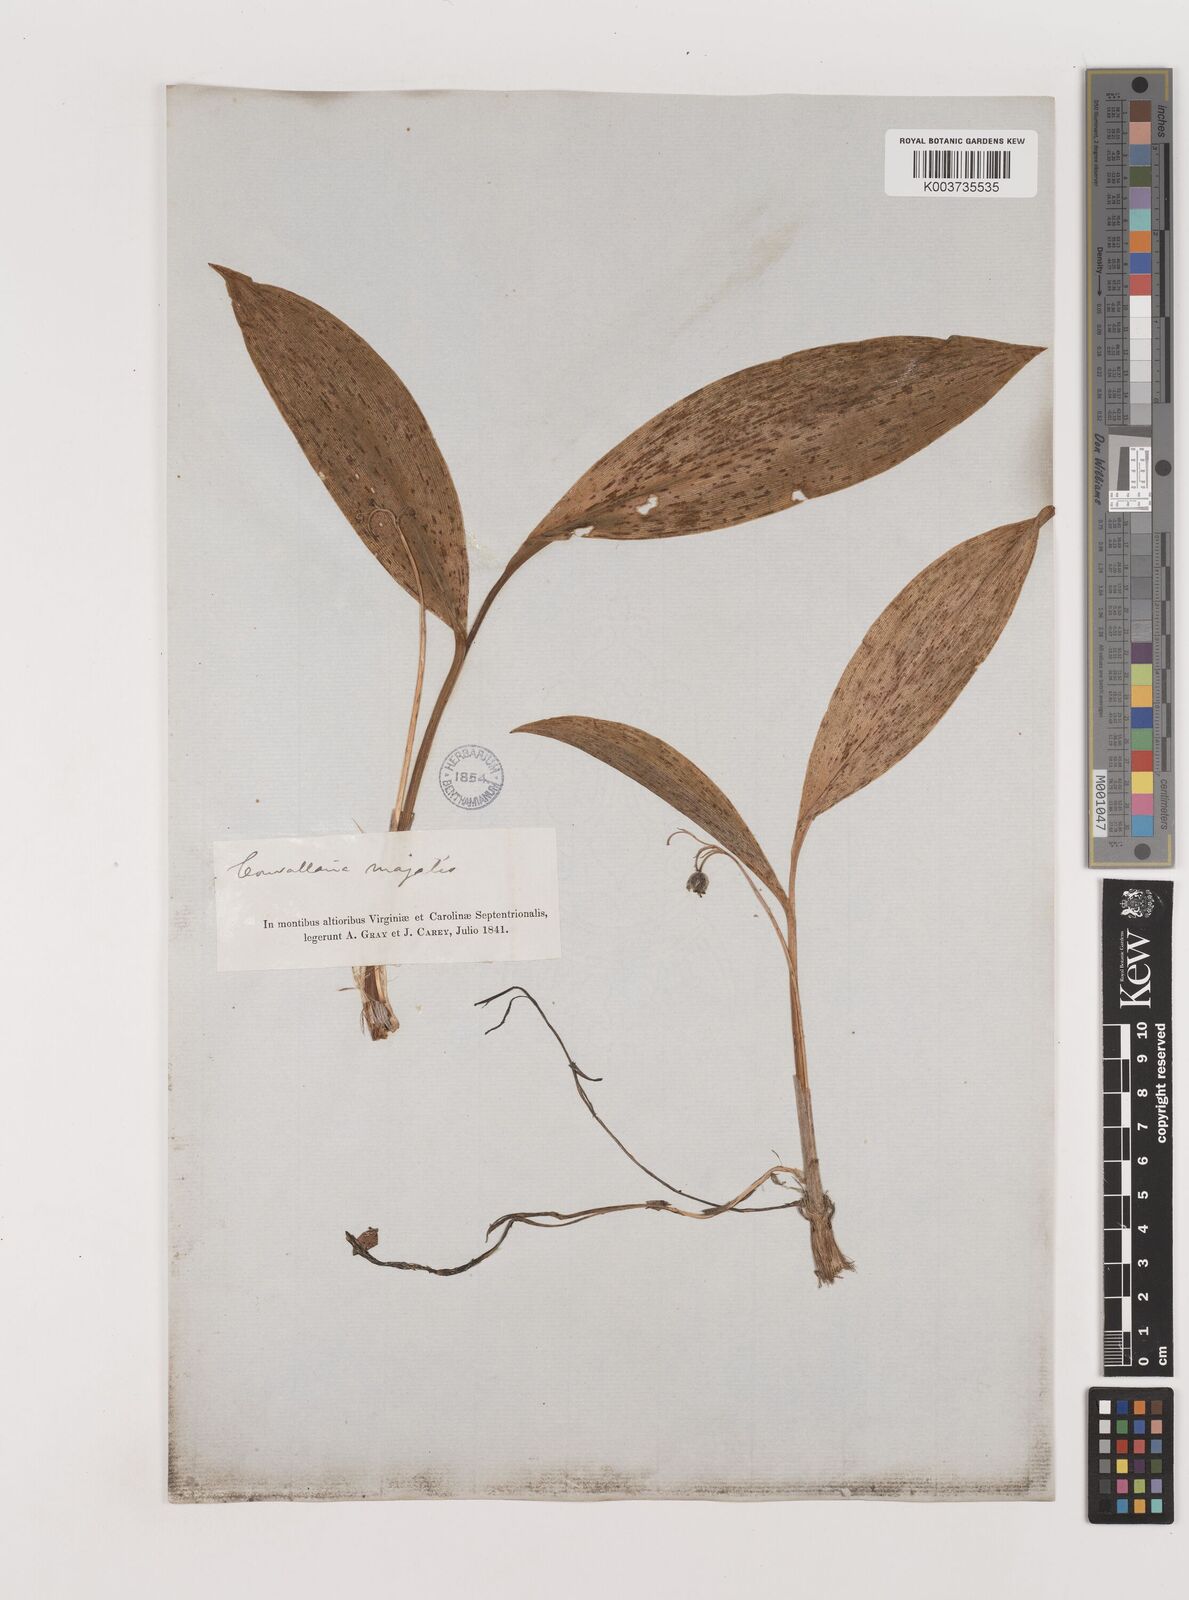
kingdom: Plantae
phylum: Tracheophyta
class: Liliopsida
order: Asparagales
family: Asparagaceae
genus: Convallaria
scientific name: Convallaria pseudomajalis
